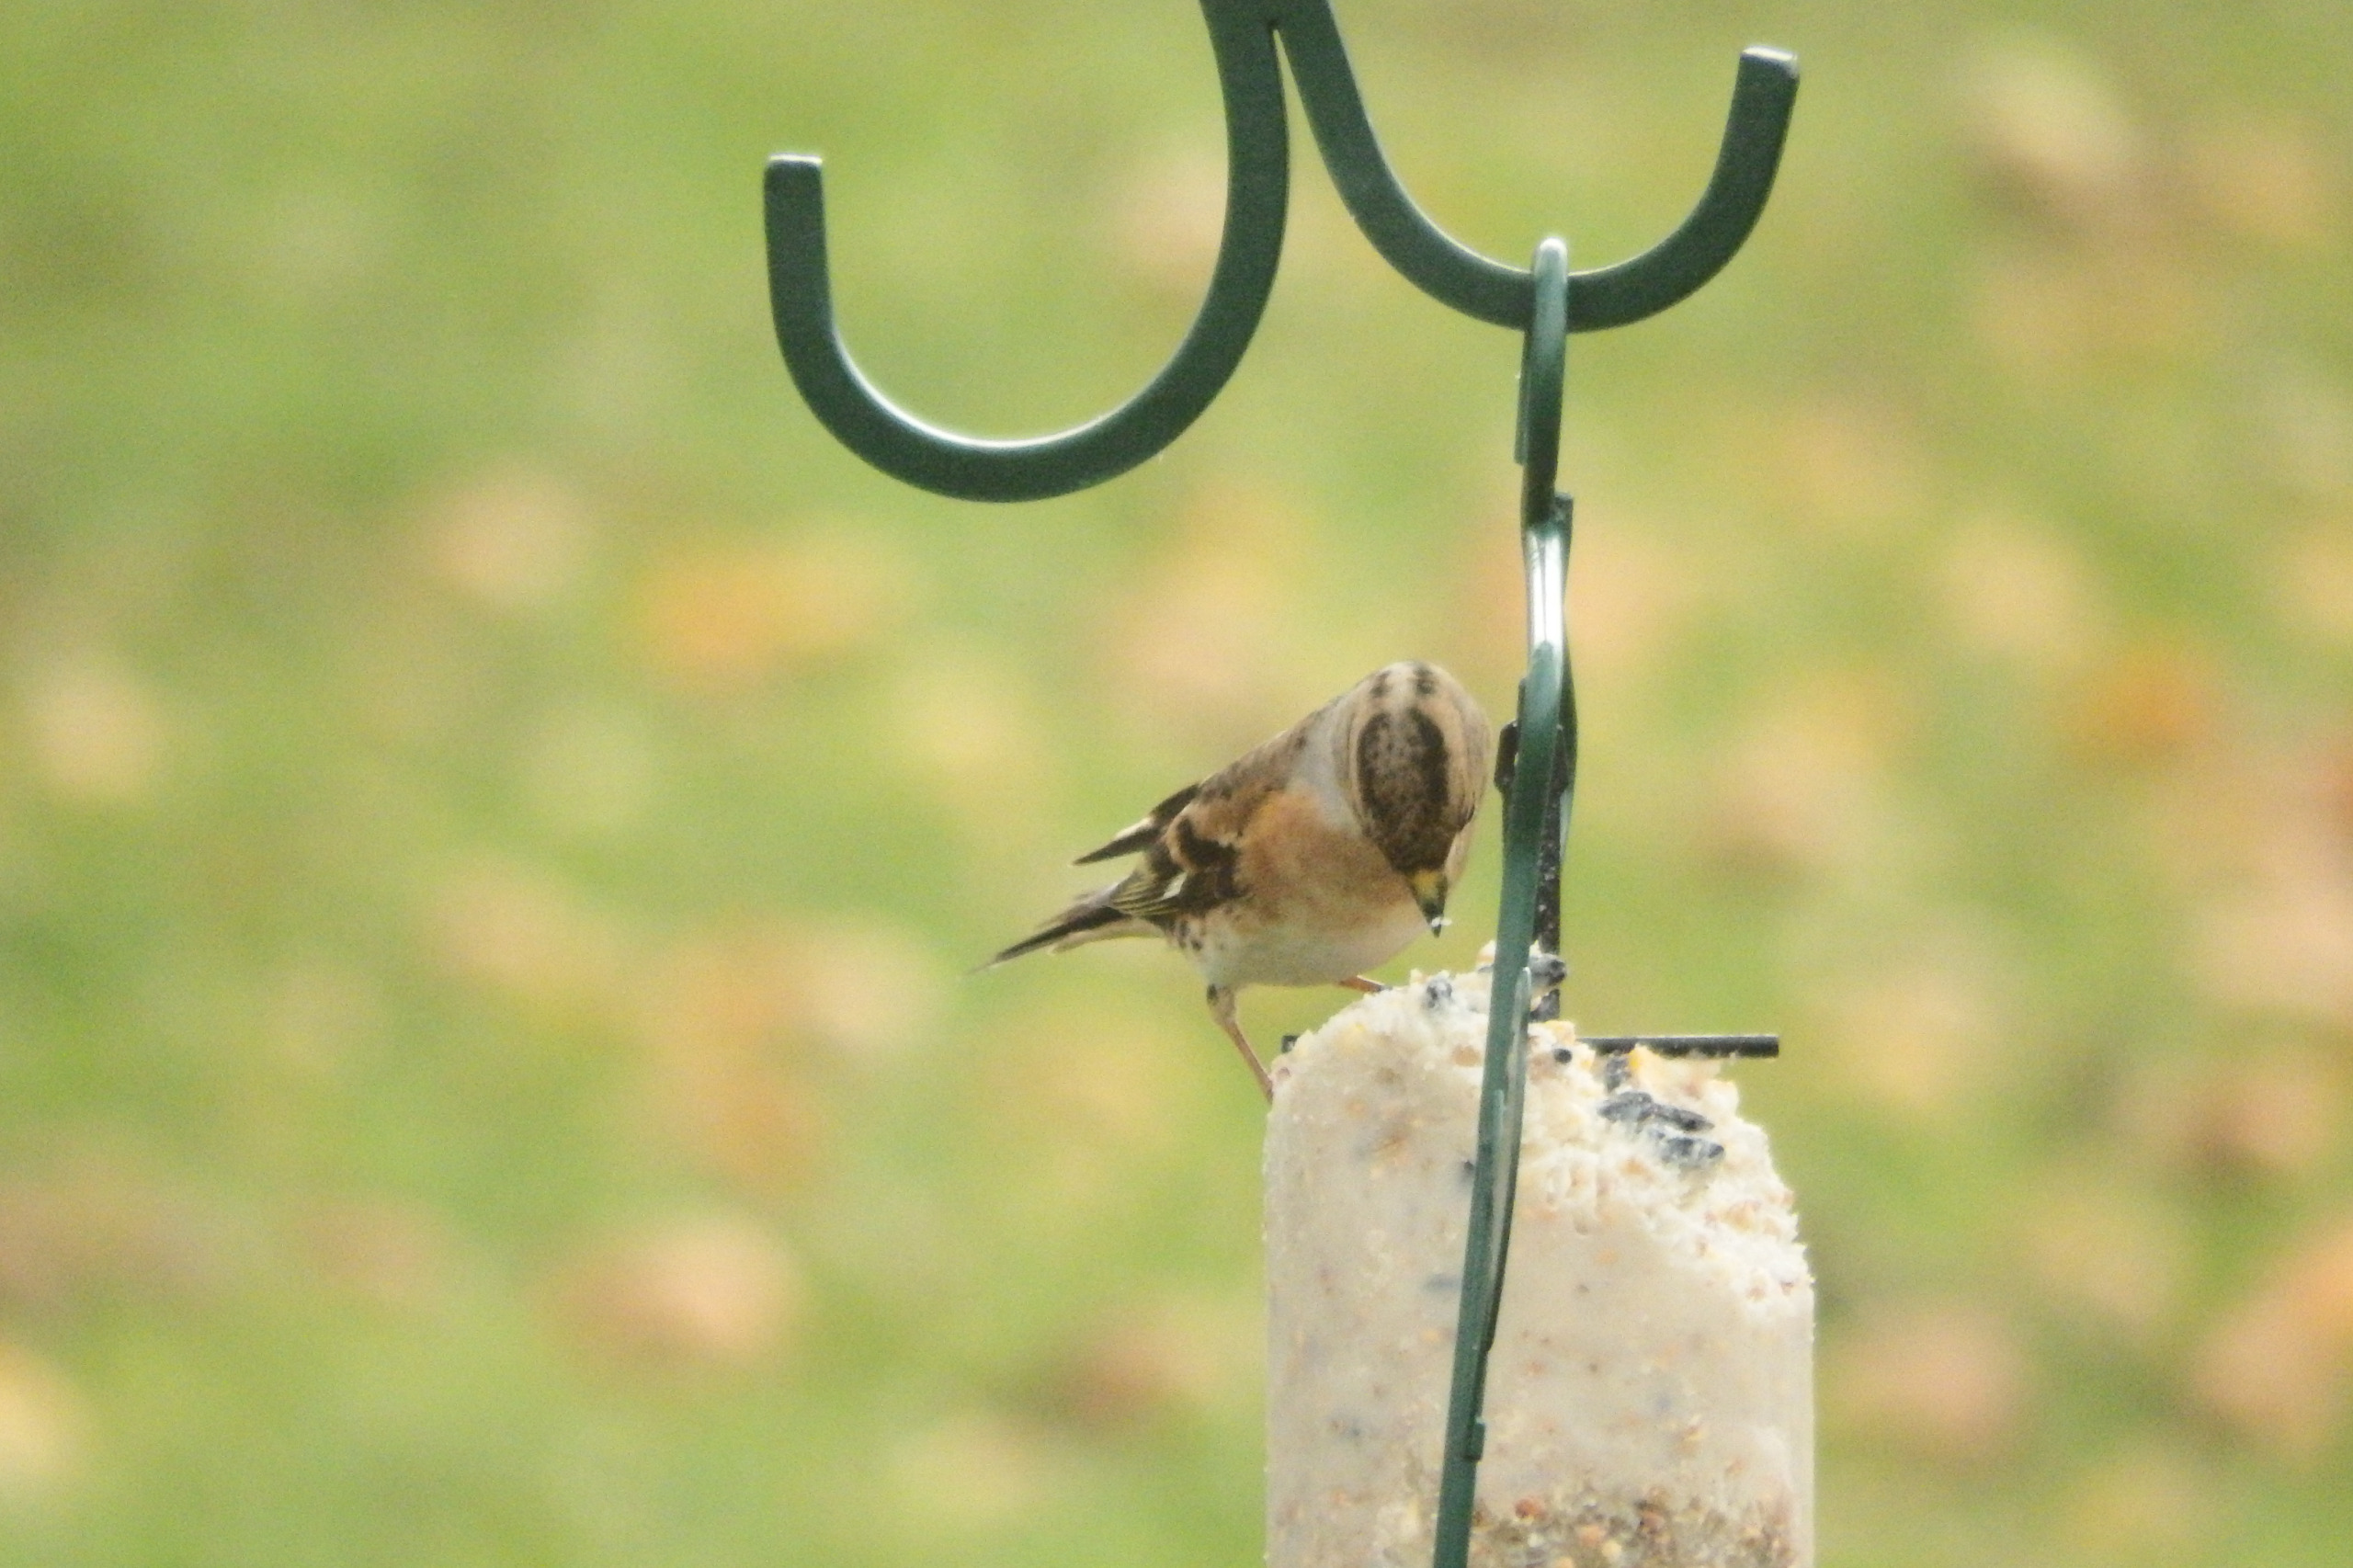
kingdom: Animalia
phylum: Chordata
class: Aves
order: Passeriformes
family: Fringillidae
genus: Fringilla
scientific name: Fringilla montifringilla
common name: Kvækerfinke
